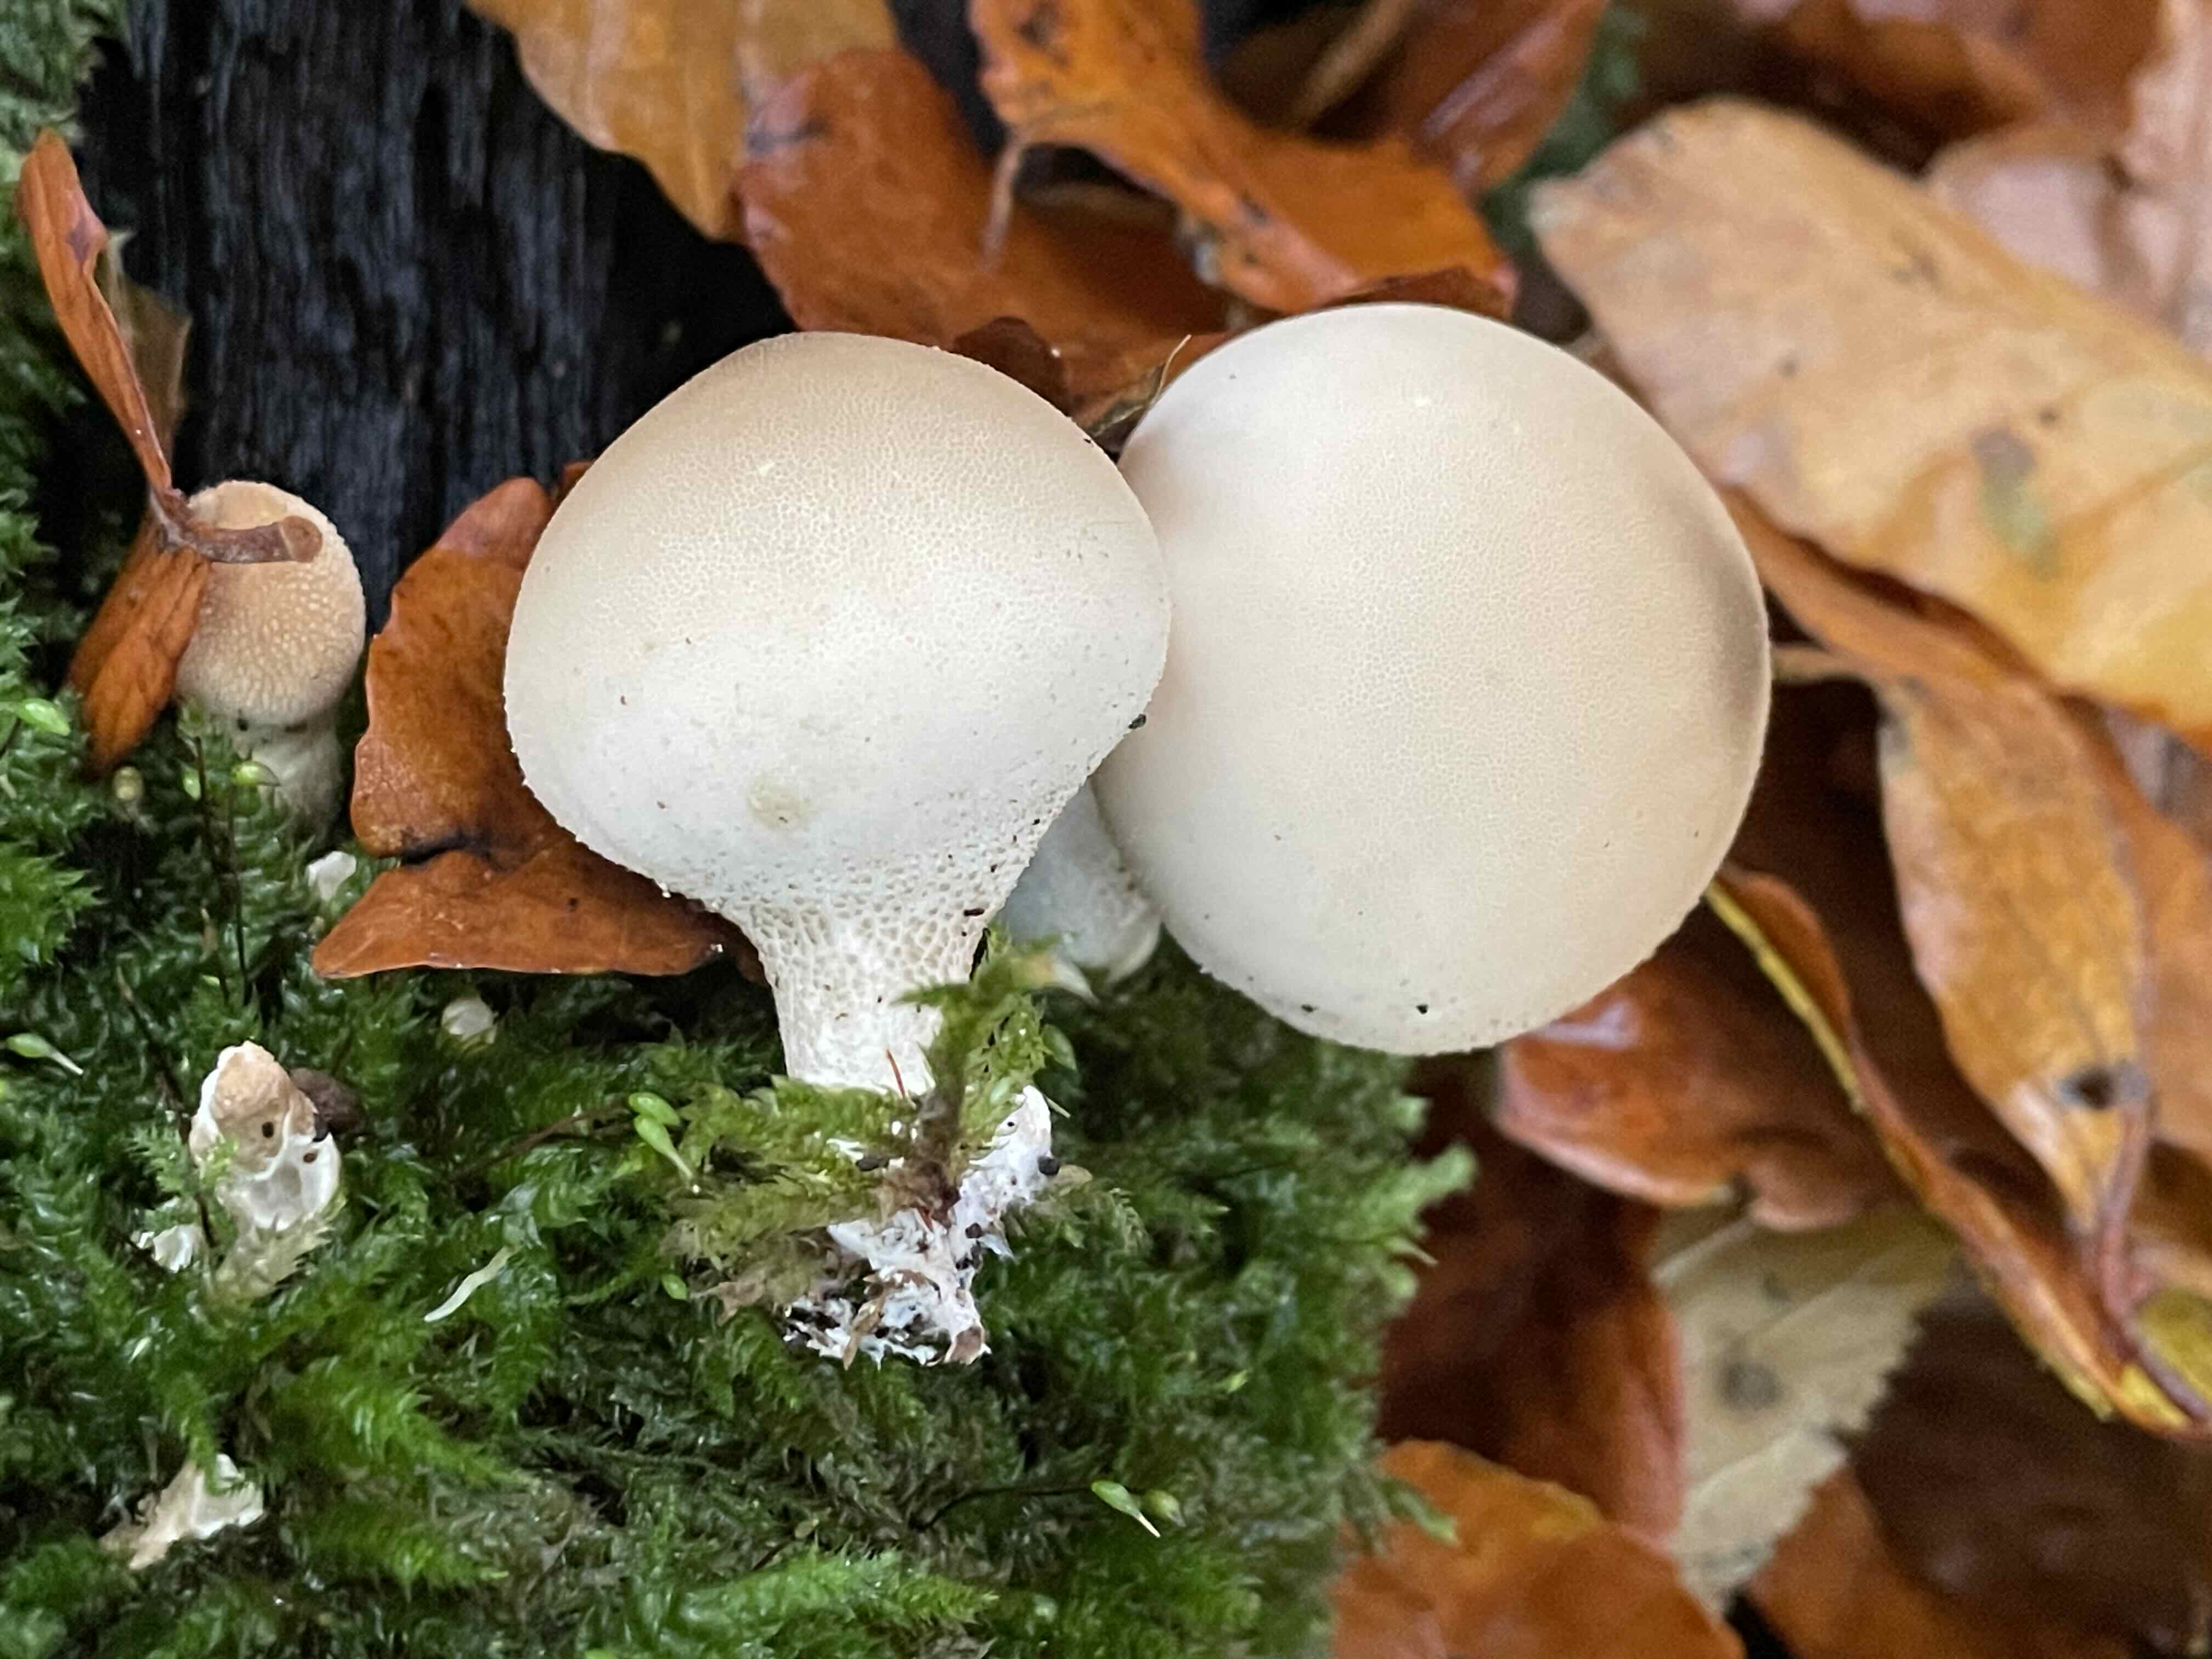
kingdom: Fungi
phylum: Basidiomycota
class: Agaricomycetes
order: Agaricales
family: Lycoperdaceae
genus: Apioperdon
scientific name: Apioperdon pyriforme
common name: pære-støvbold
